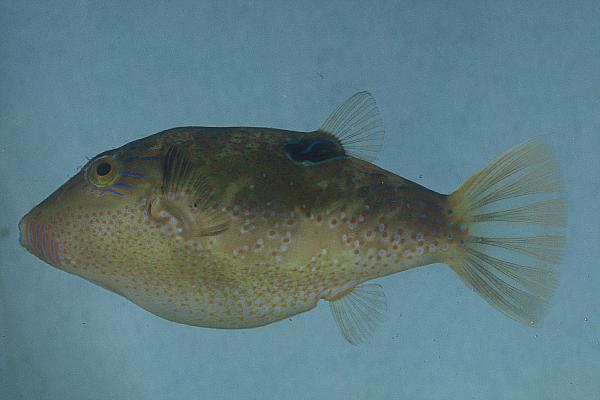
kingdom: Animalia
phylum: Chordata
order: Tetraodontiformes
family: Tetraodontidae
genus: Canthigaster
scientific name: Canthigaster bennetti
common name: Bennett's pufferfish
